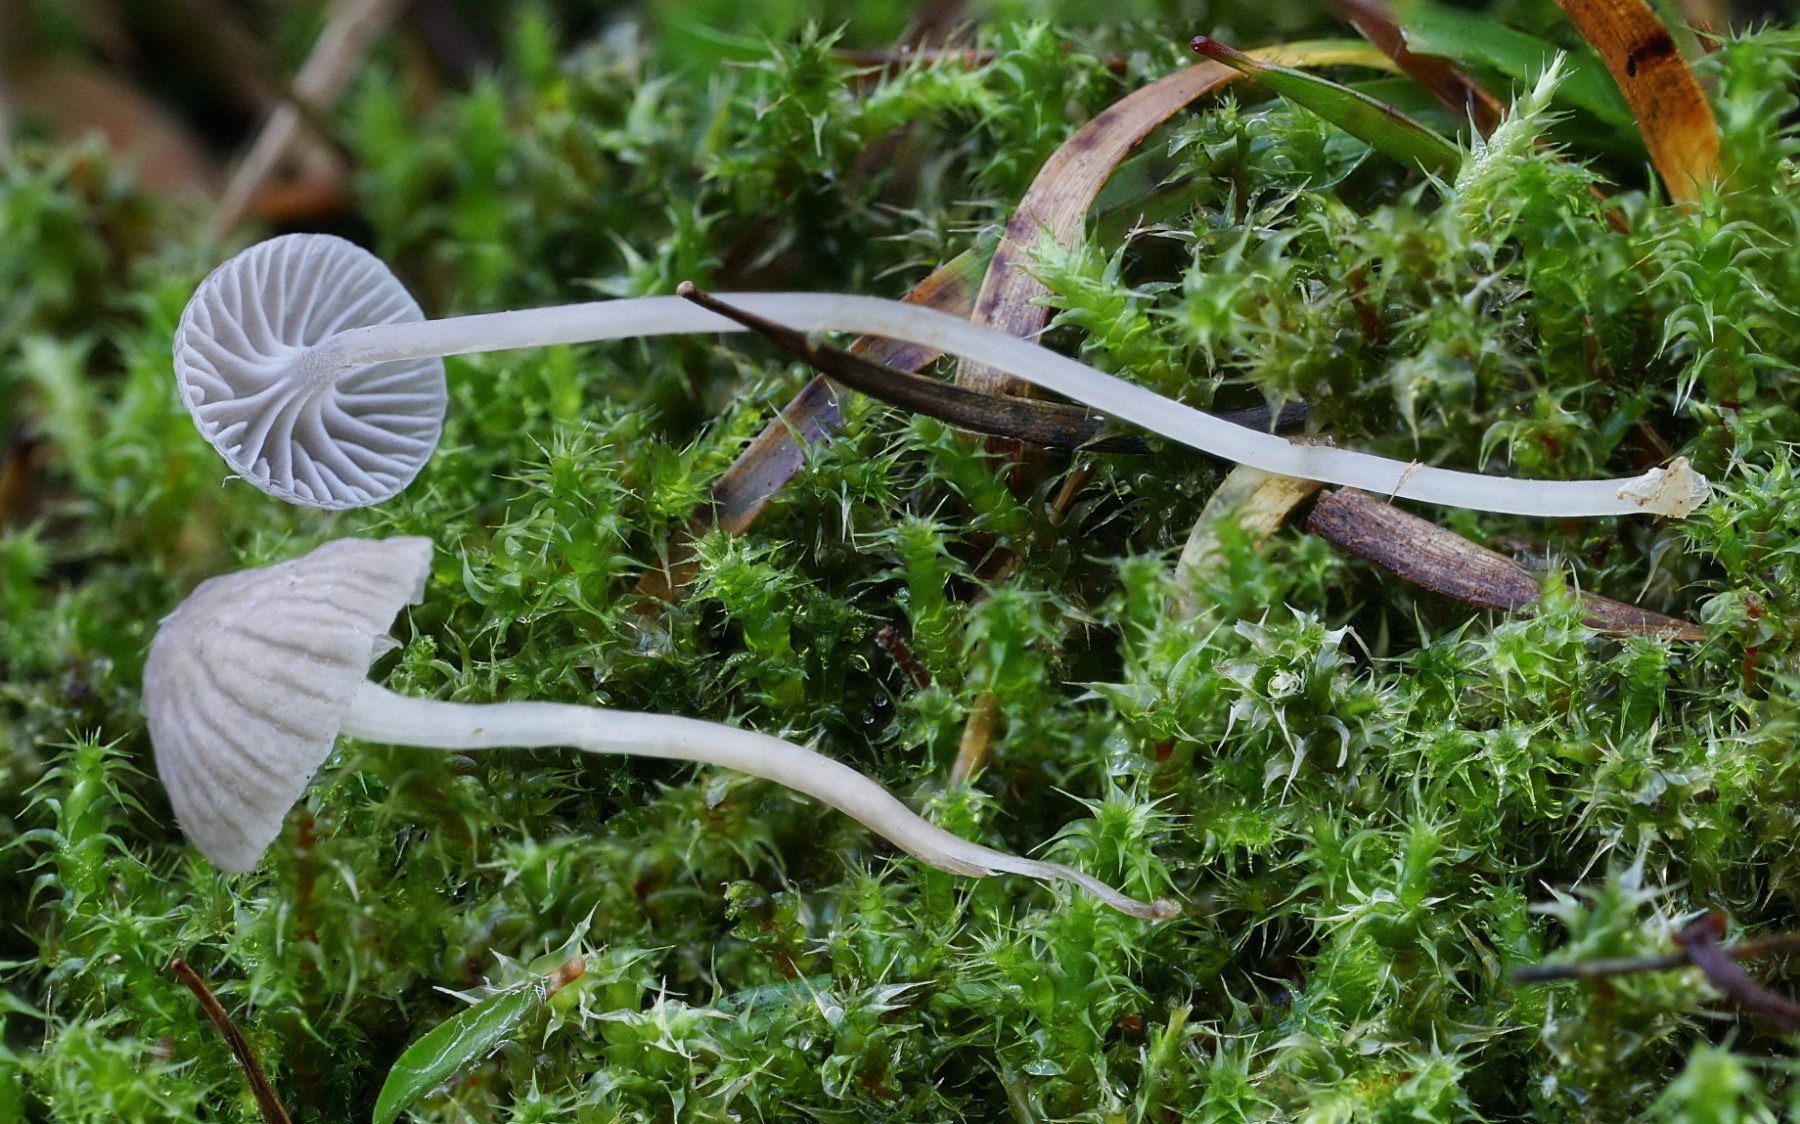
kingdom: Fungi
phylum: Basidiomycota
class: Agaricomycetes
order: Agaricales
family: Mycenaceae
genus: Mycena
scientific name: Mycena cinerella
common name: mel-huesvamp
